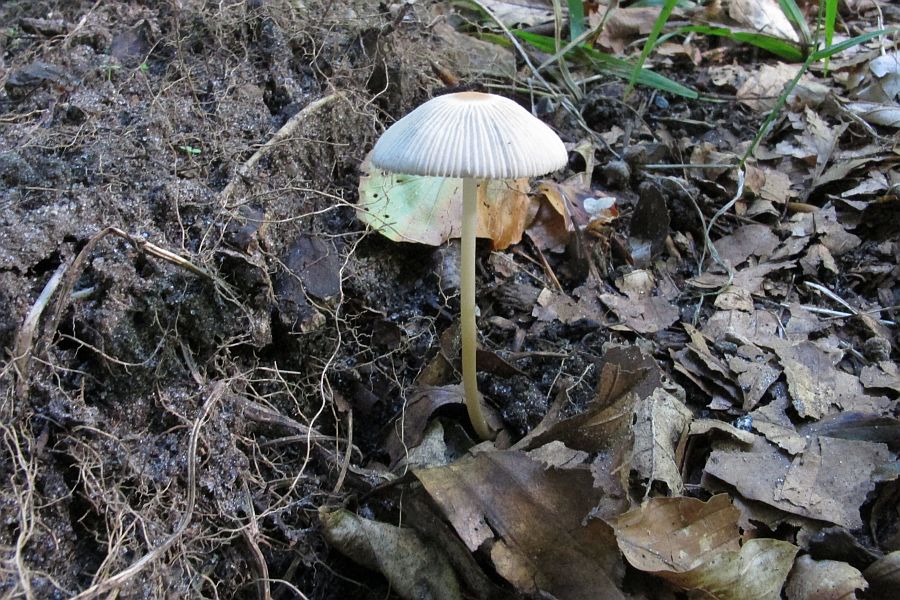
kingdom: Fungi
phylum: Basidiomycota
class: Agaricomycetes
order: Agaricales
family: Psathyrellaceae
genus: Parasola
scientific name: Parasola lactea
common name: glat hjulhat
